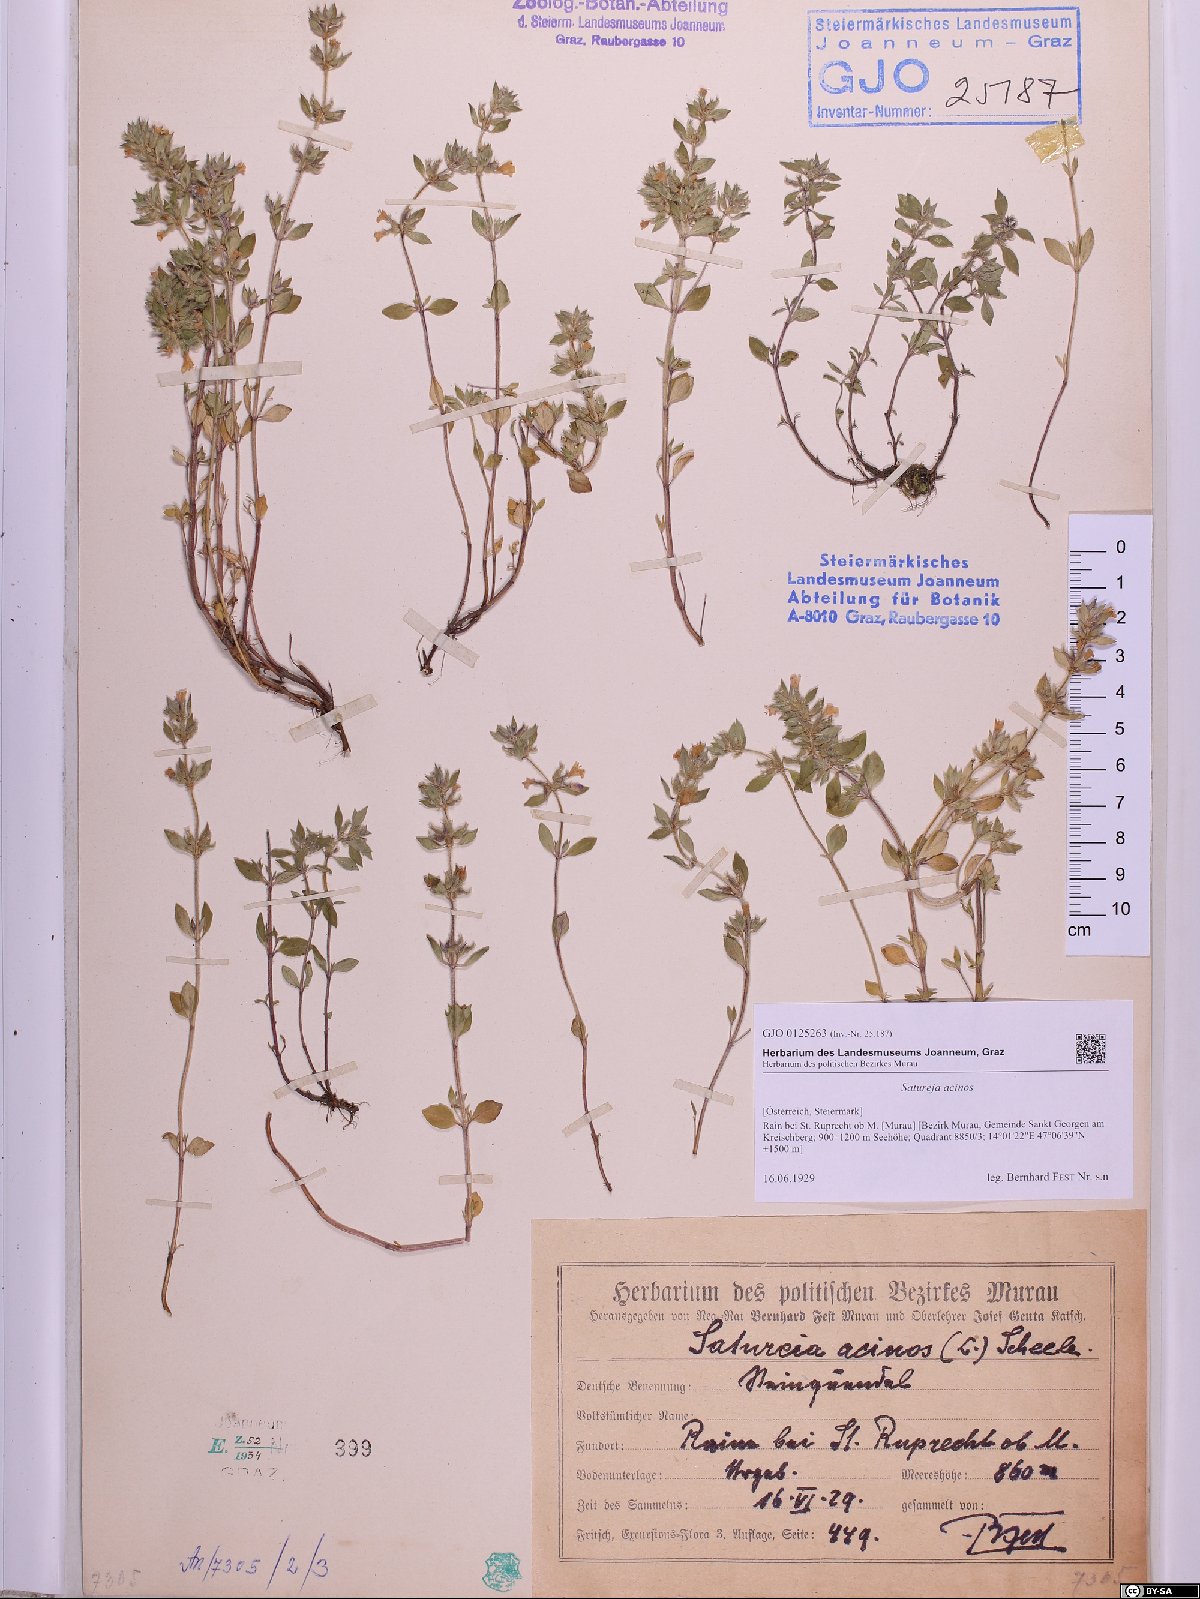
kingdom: Plantae
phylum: Tracheophyta
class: Magnoliopsida
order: Lamiales
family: Lamiaceae
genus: Clinopodium
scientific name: Clinopodium acinos
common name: Basil thyme
